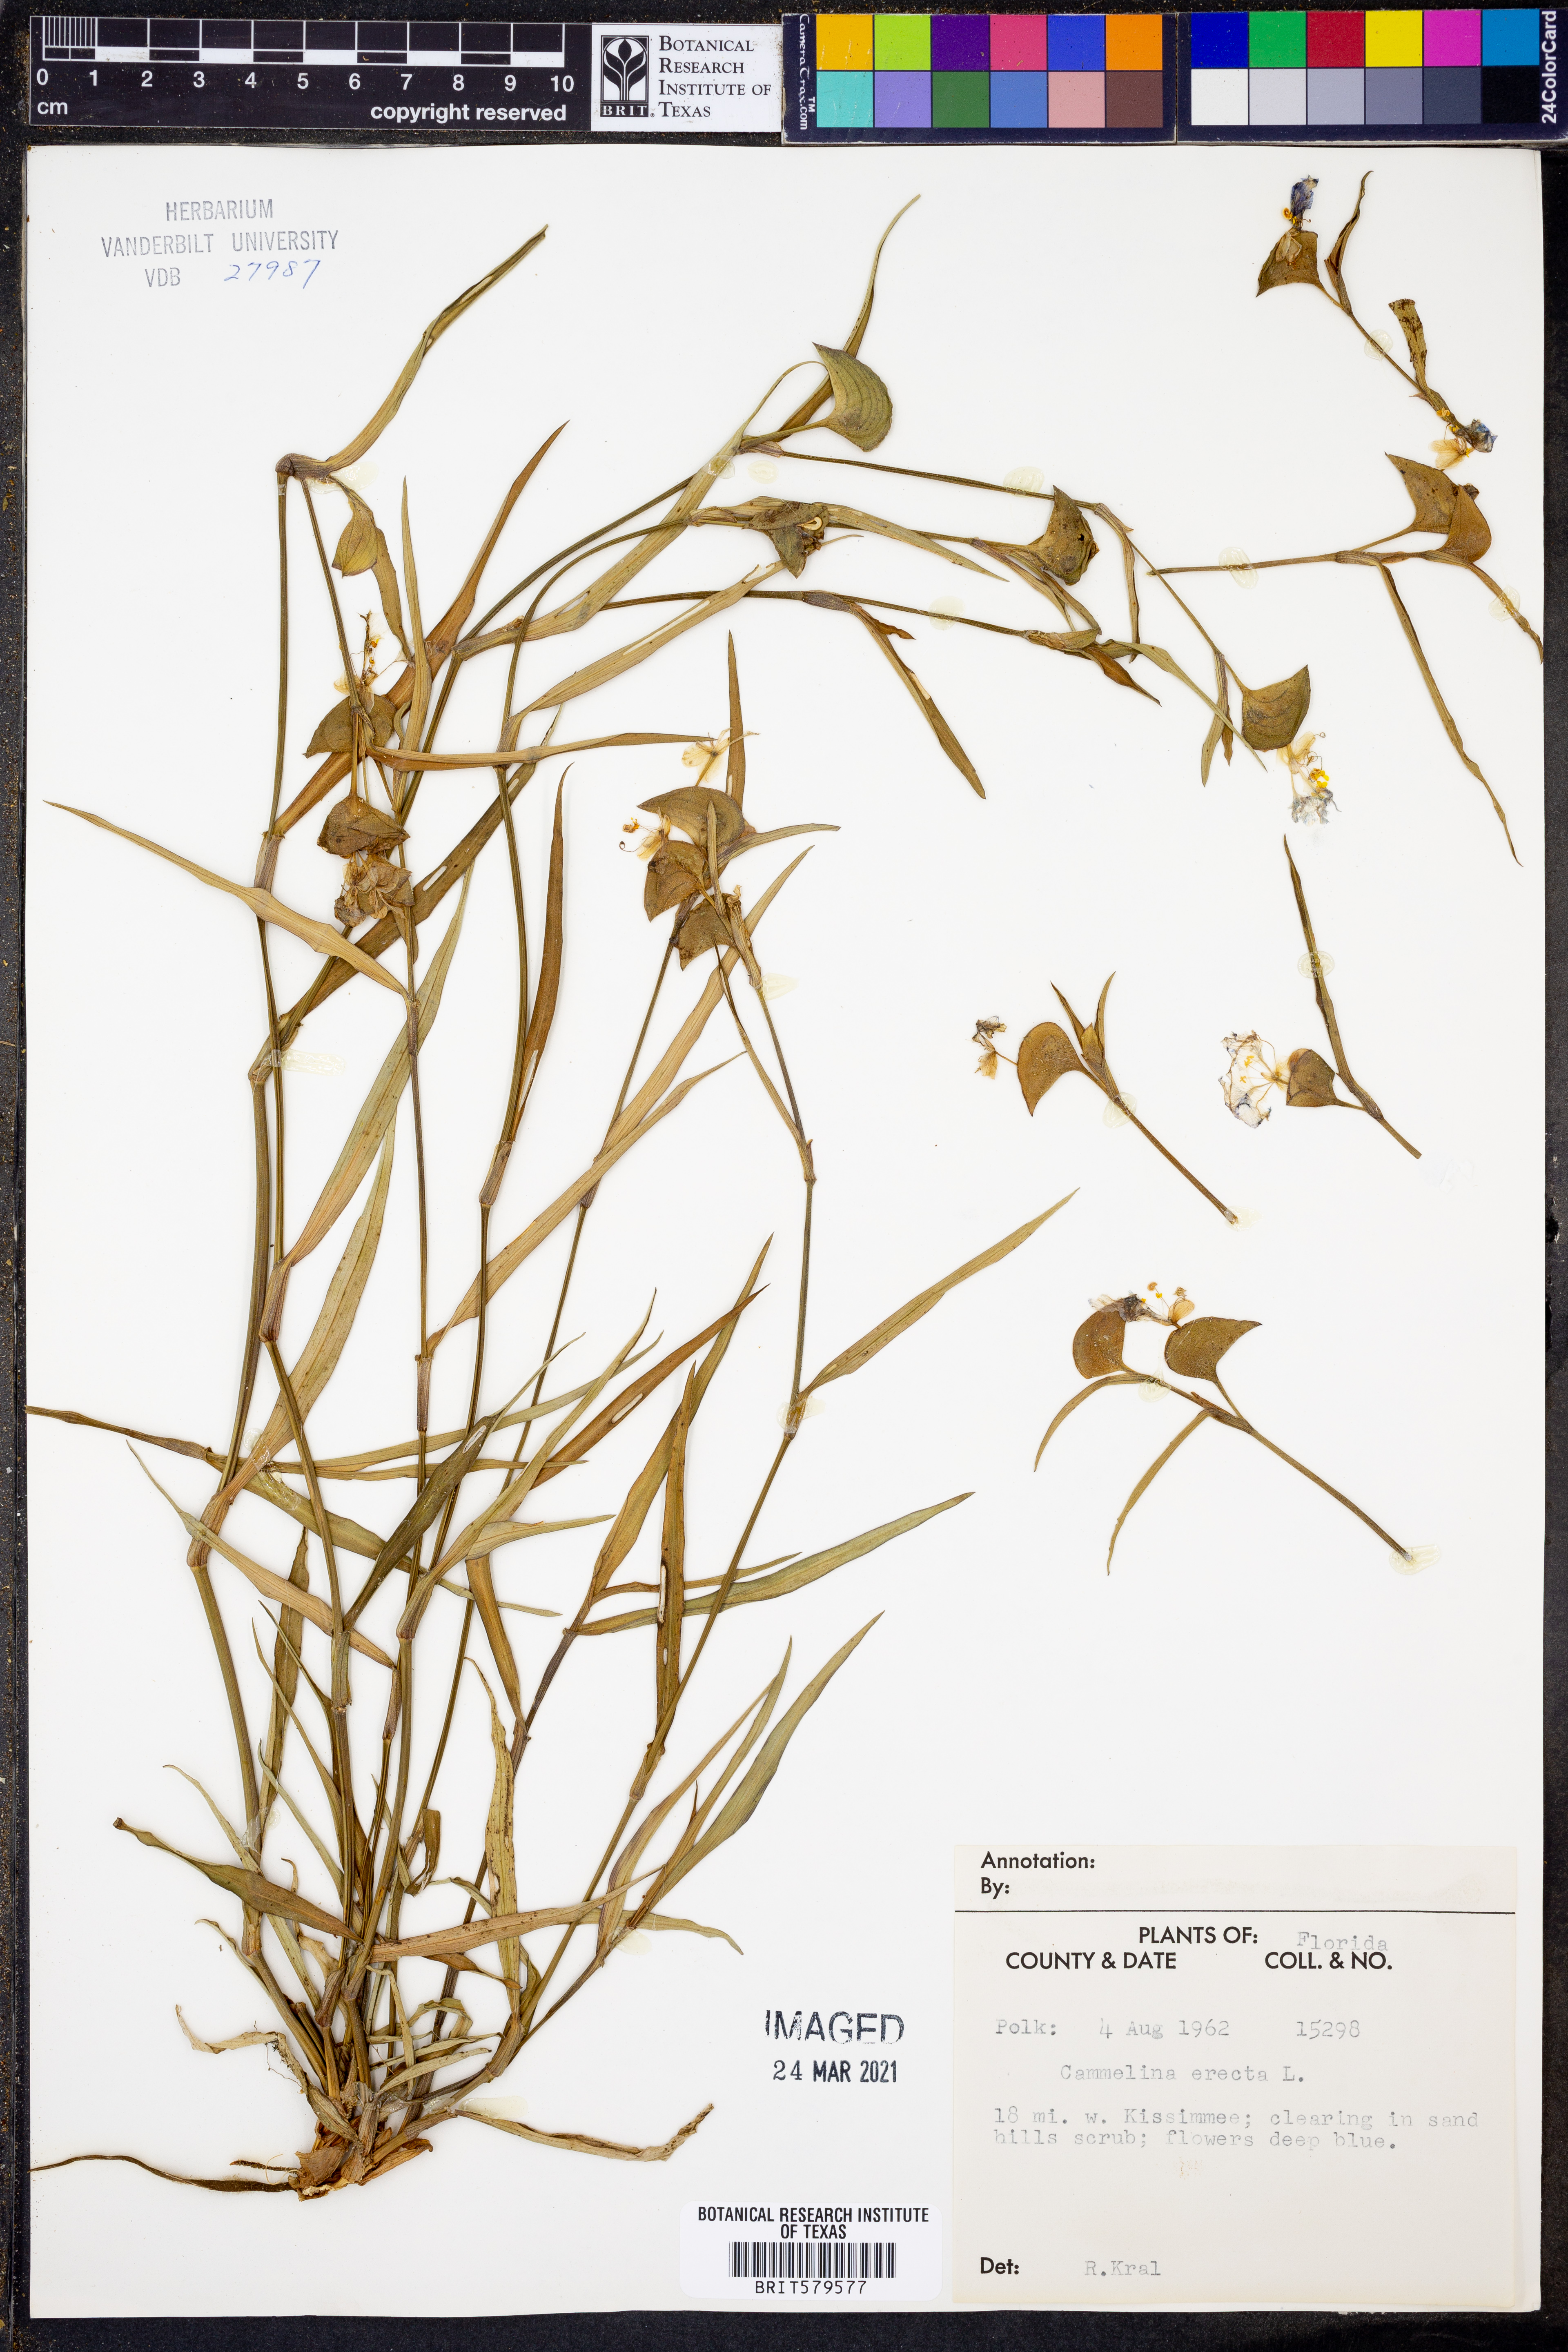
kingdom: Plantae
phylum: Tracheophyta
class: Liliopsida
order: Commelinales
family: Commelinaceae
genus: Commelina
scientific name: Commelina erecta
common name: Blousel blommetjie
